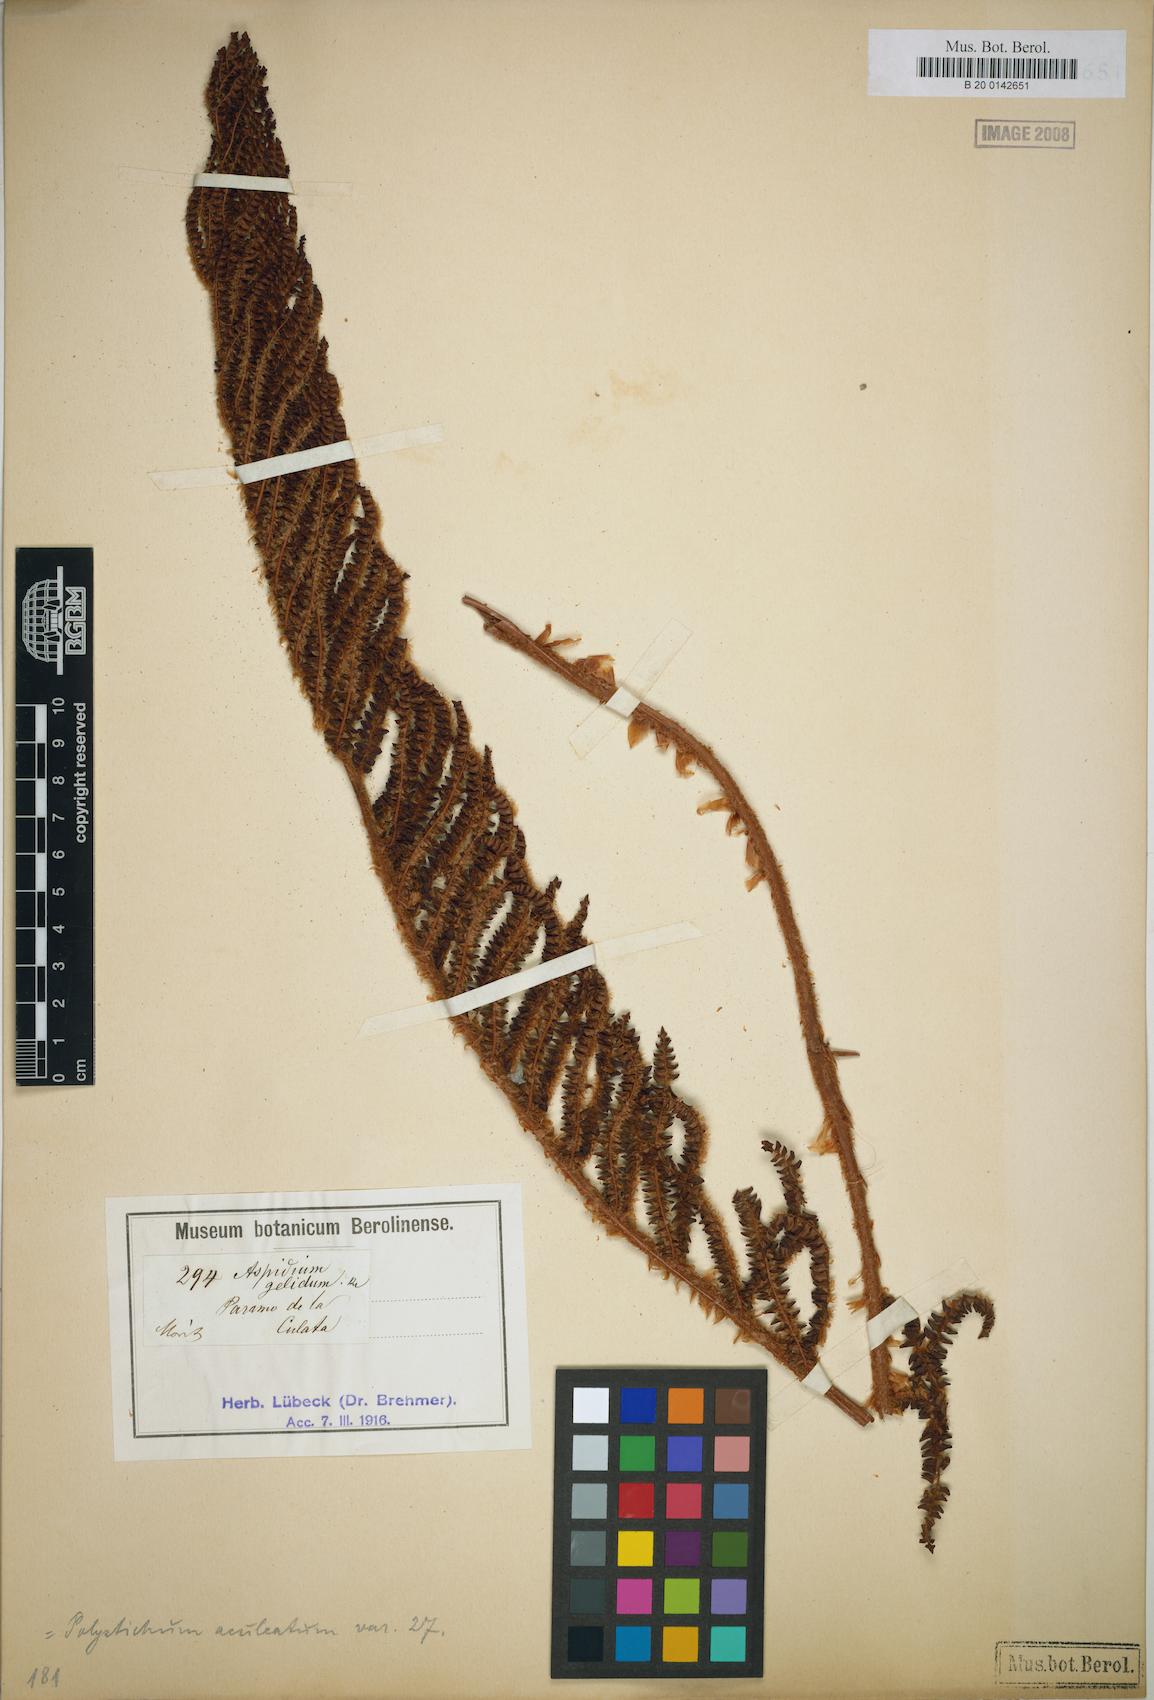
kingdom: Plantae
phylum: Tracheophyta
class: Polypodiopsida
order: Polypodiales
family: Dryopteridaceae
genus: Polystichum
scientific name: Polystichum pycnolepis
